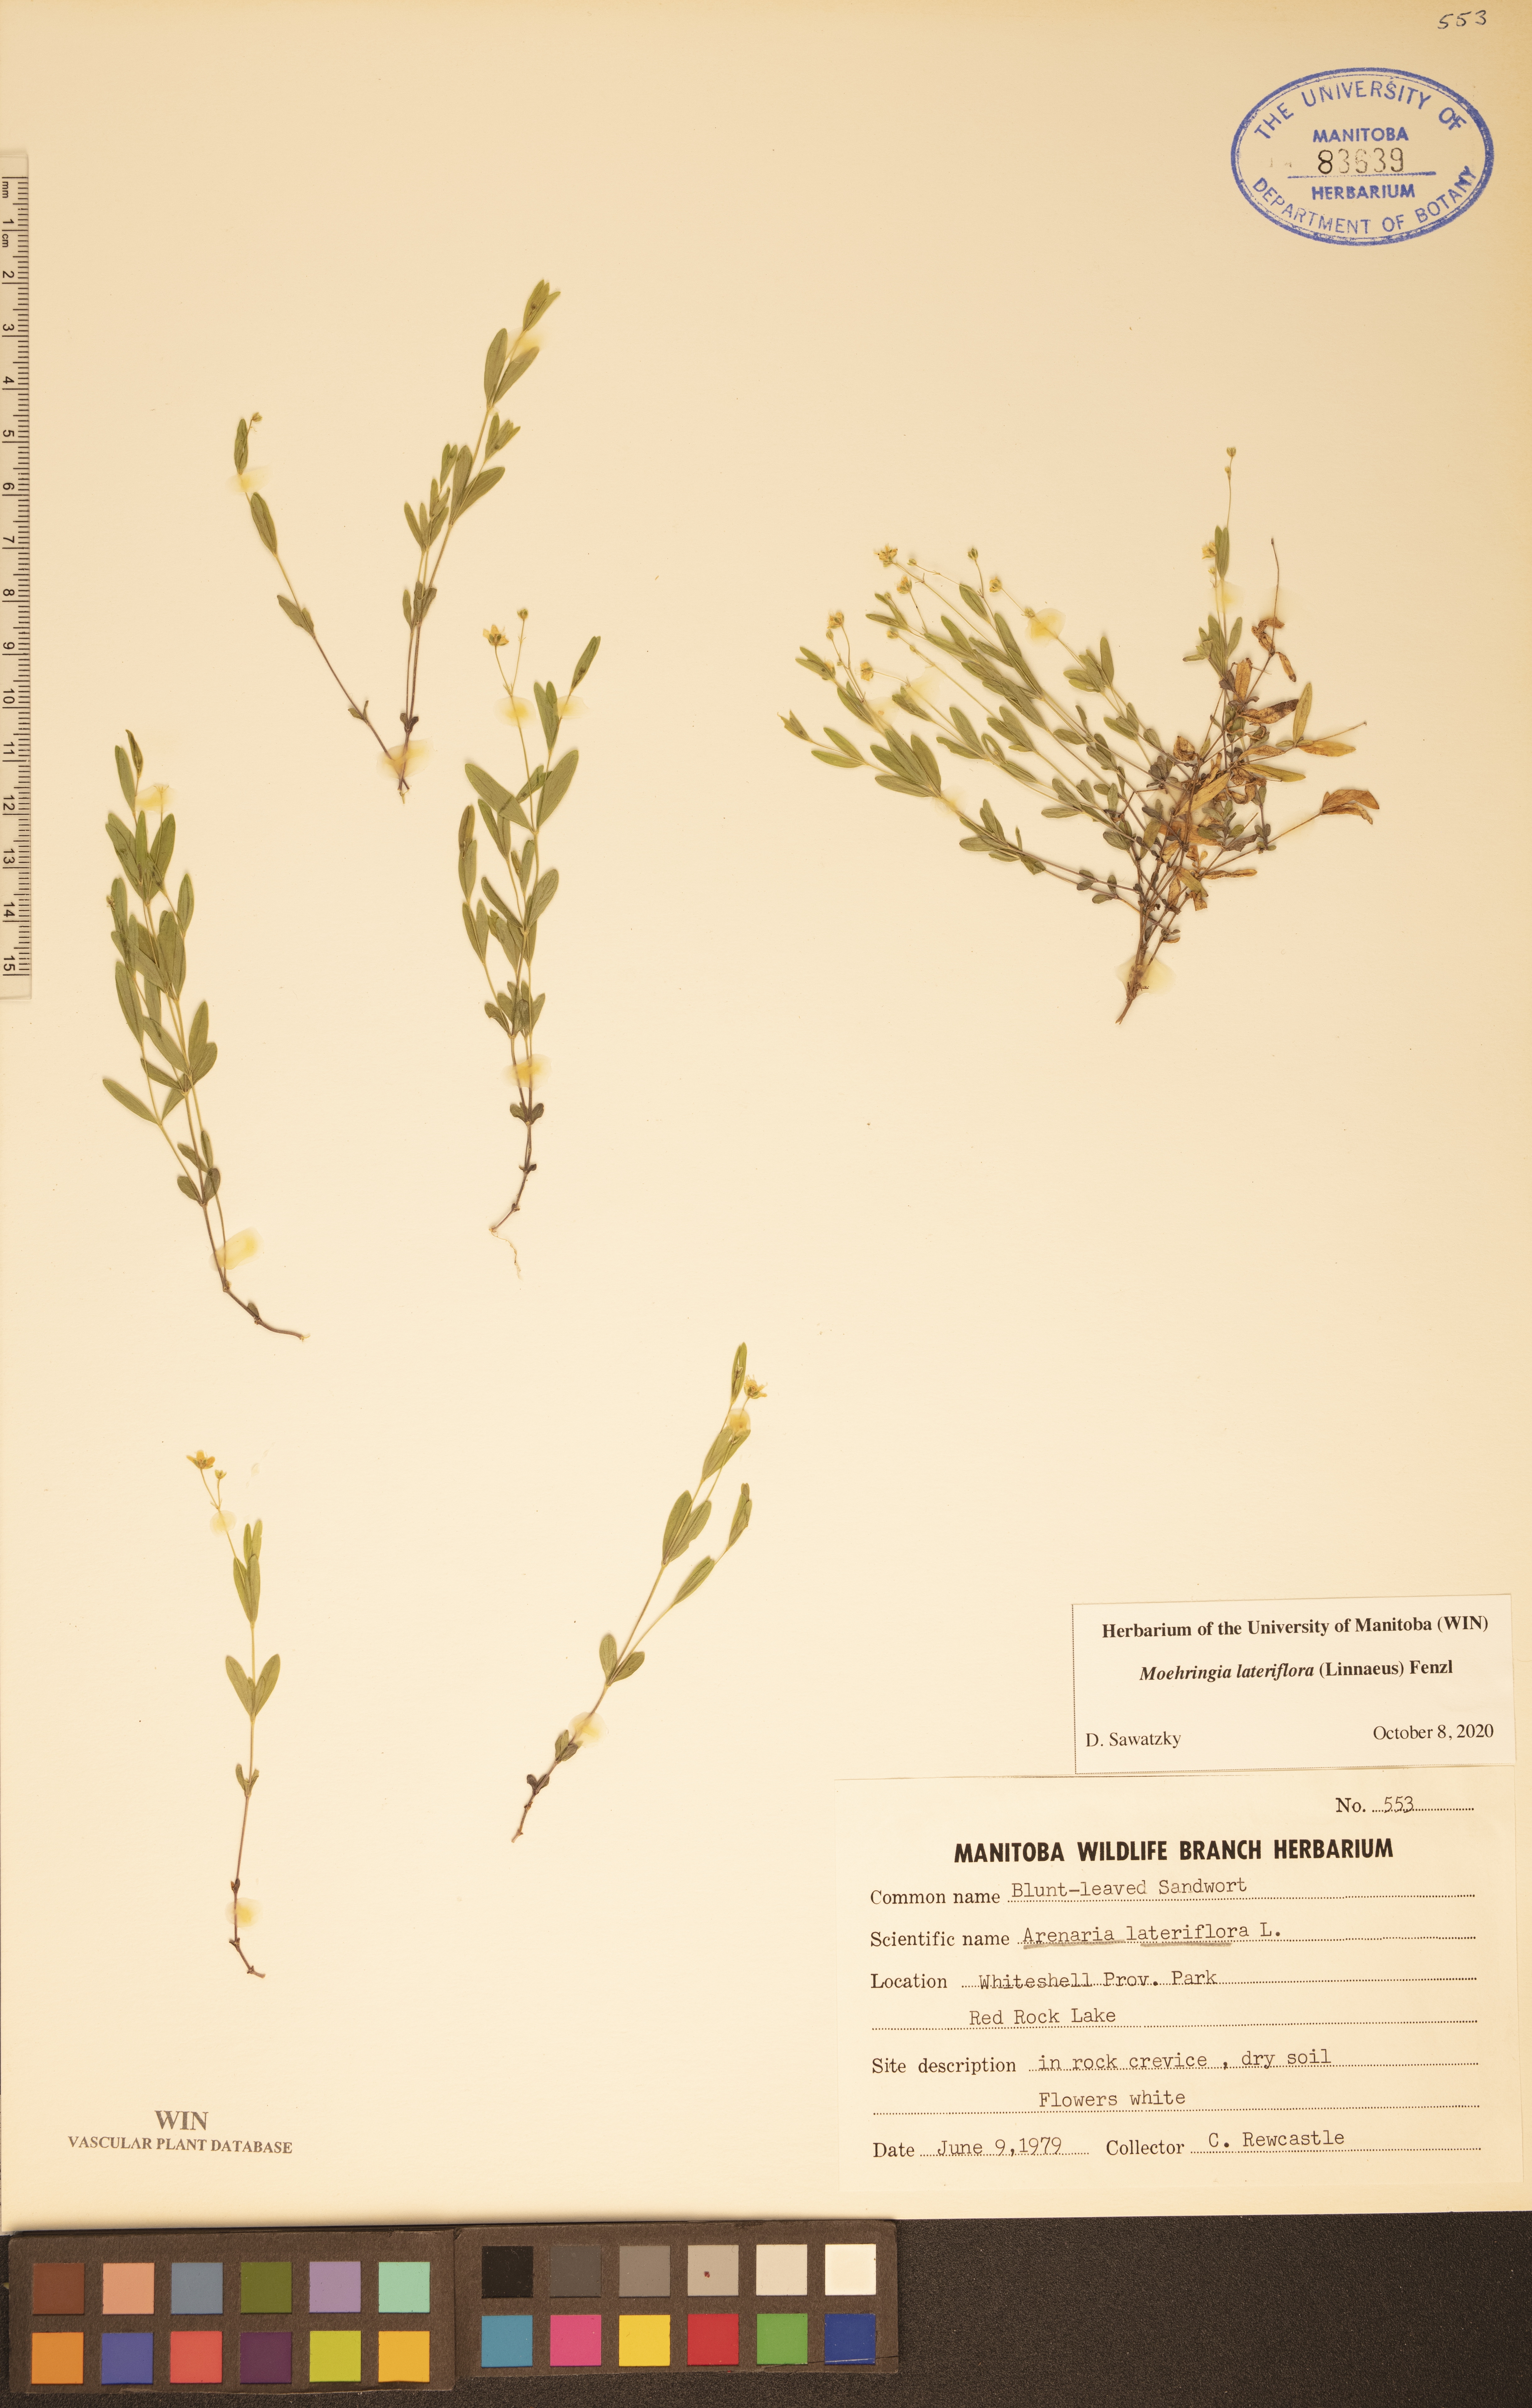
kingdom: Plantae
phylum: Tracheophyta
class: Magnoliopsida
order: Caryophyllales
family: Caryophyllaceae
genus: Moehringia
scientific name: Moehringia lateriflora
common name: Blunt-leaved sandwort
